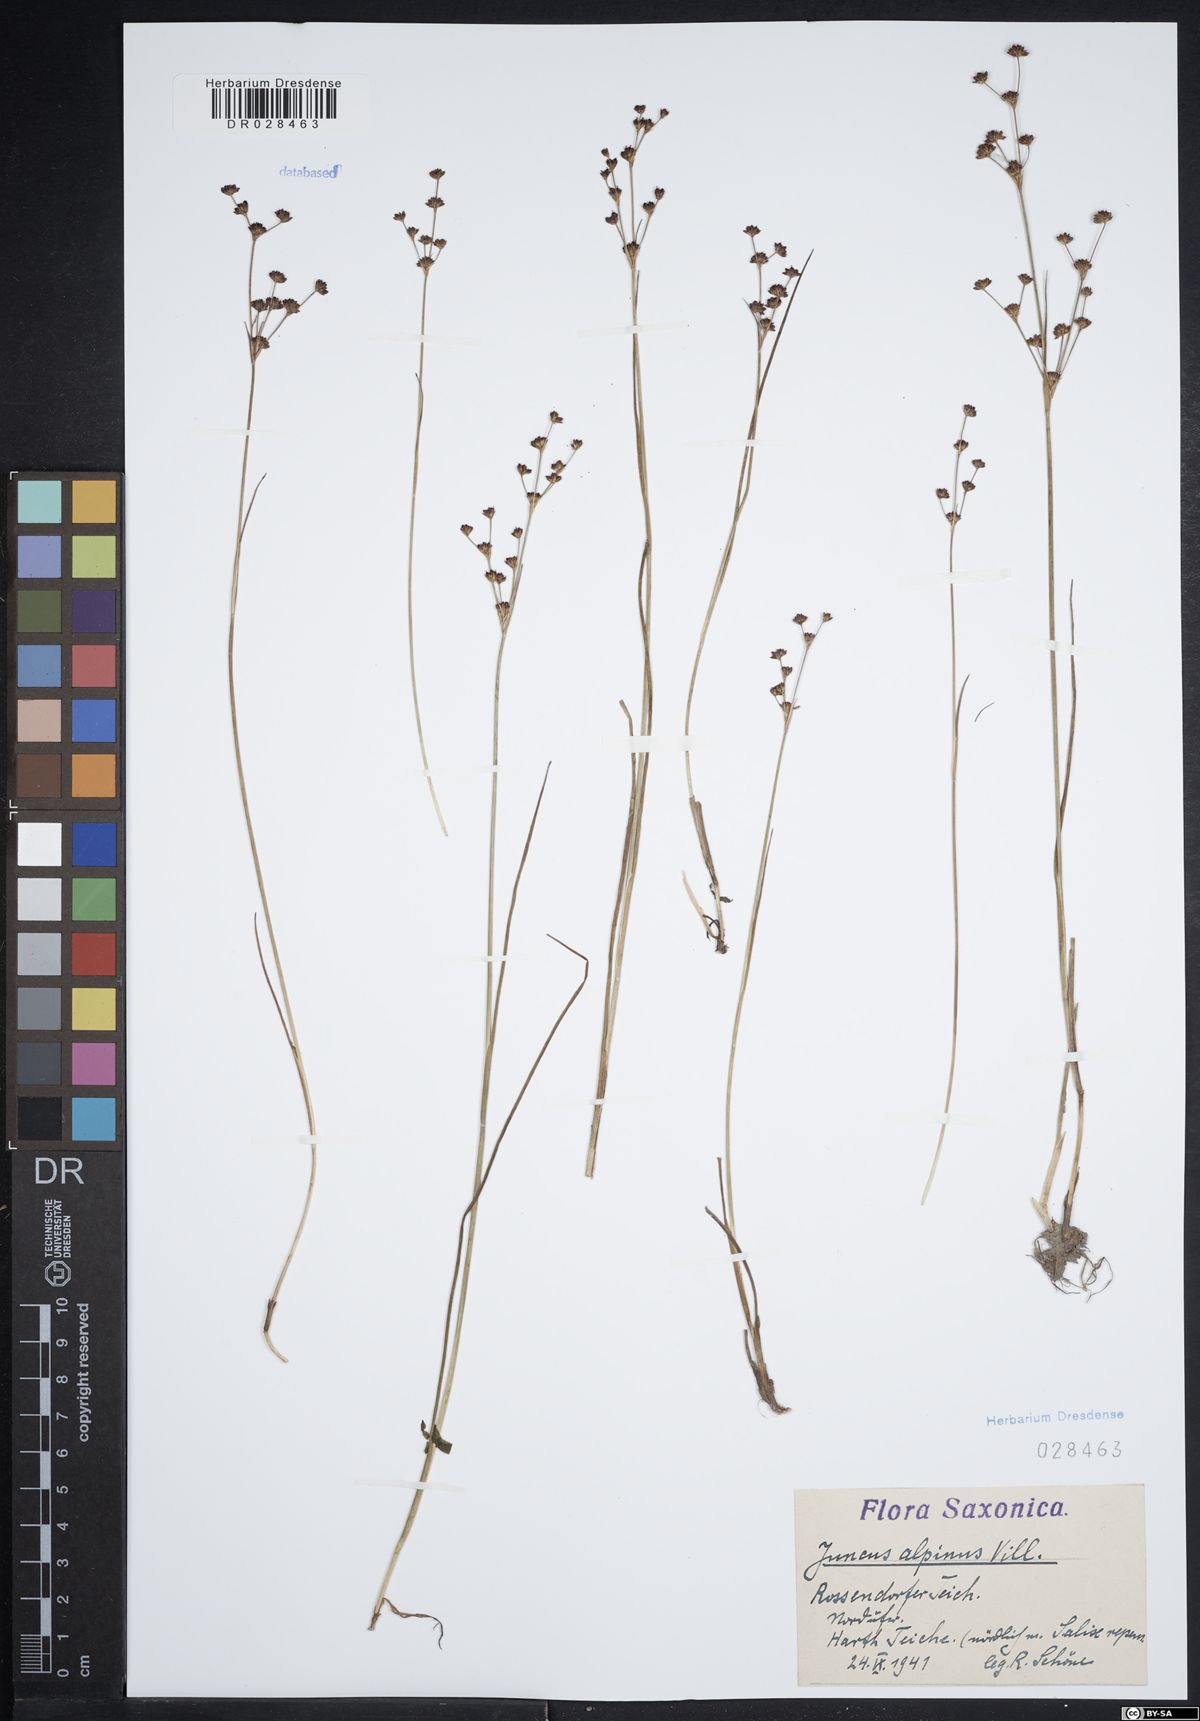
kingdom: Plantae
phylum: Tracheophyta
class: Liliopsida
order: Poales
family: Juncaceae
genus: Juncus
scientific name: Juncus alpinoarticulatus
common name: Alpine rush
